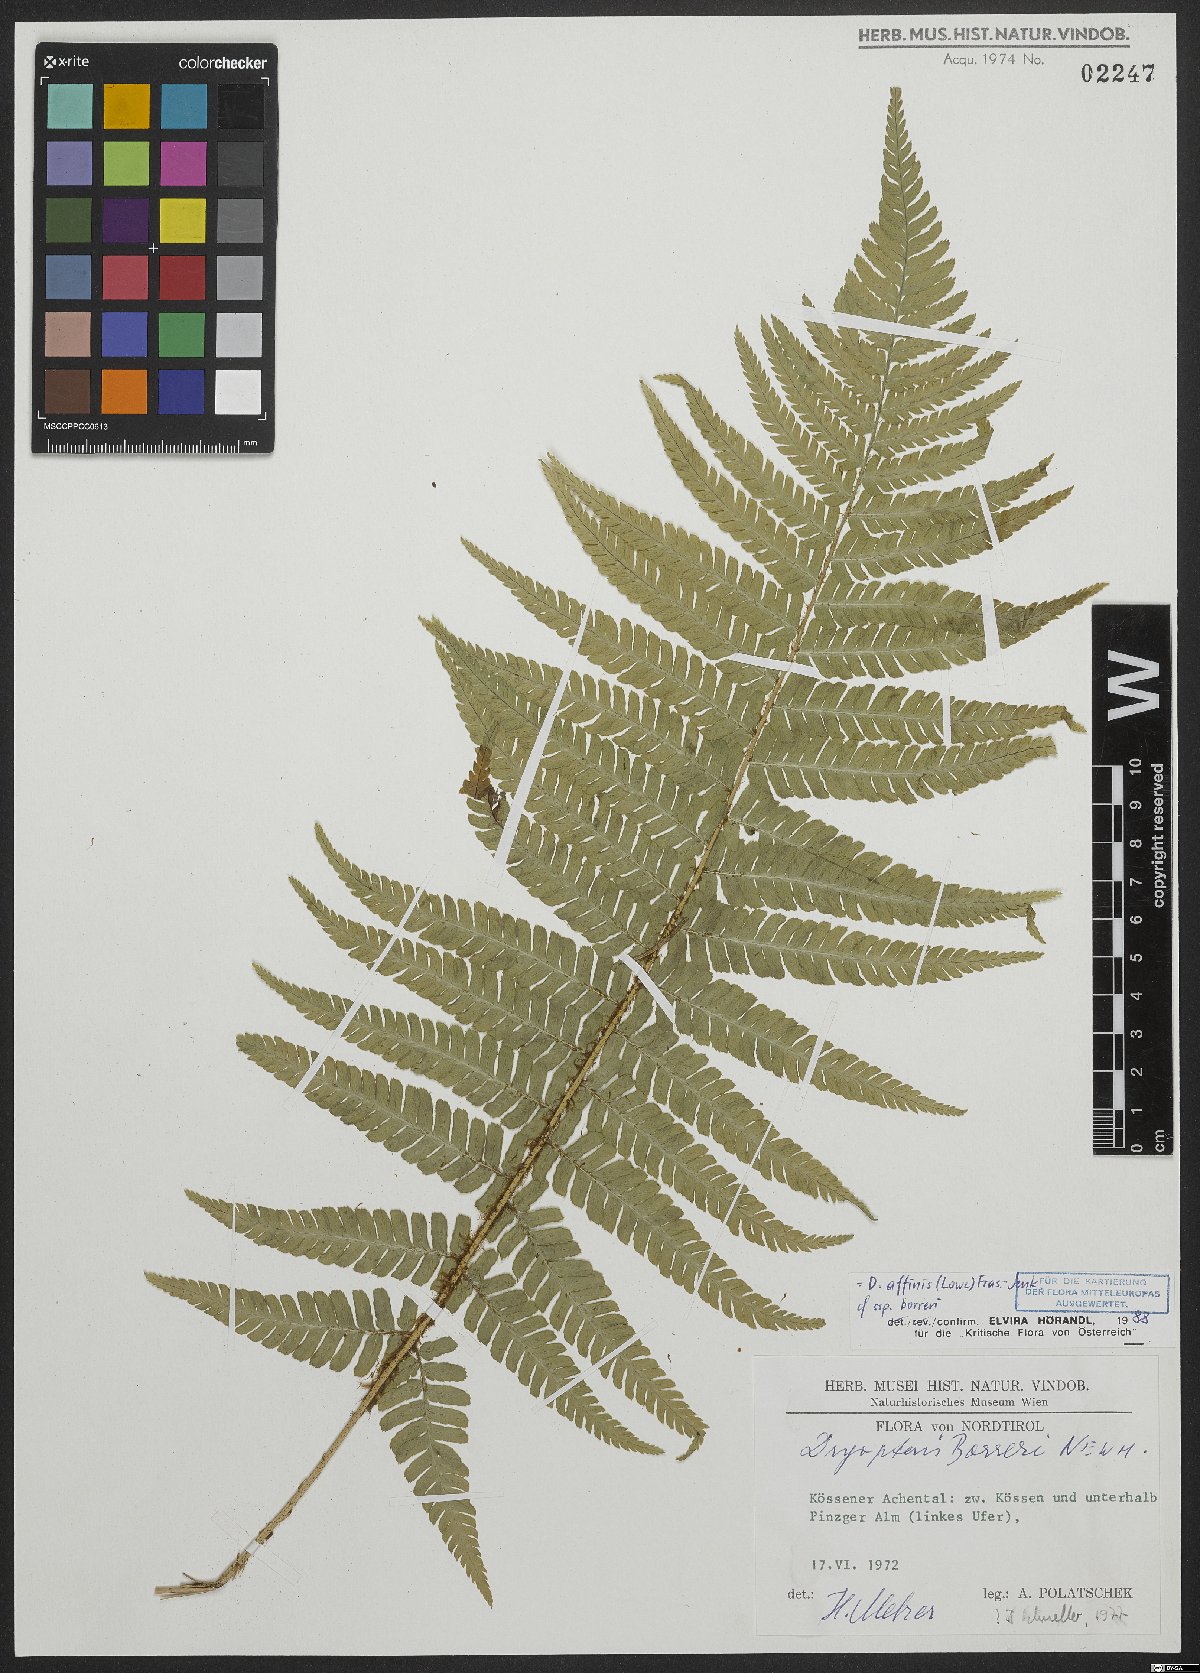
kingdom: Plantae
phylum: Tracheophyta
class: Polypodiopsida
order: Polypodiales
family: Dryopteridaceae
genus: Dryopteris
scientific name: Dryopteris borreri
